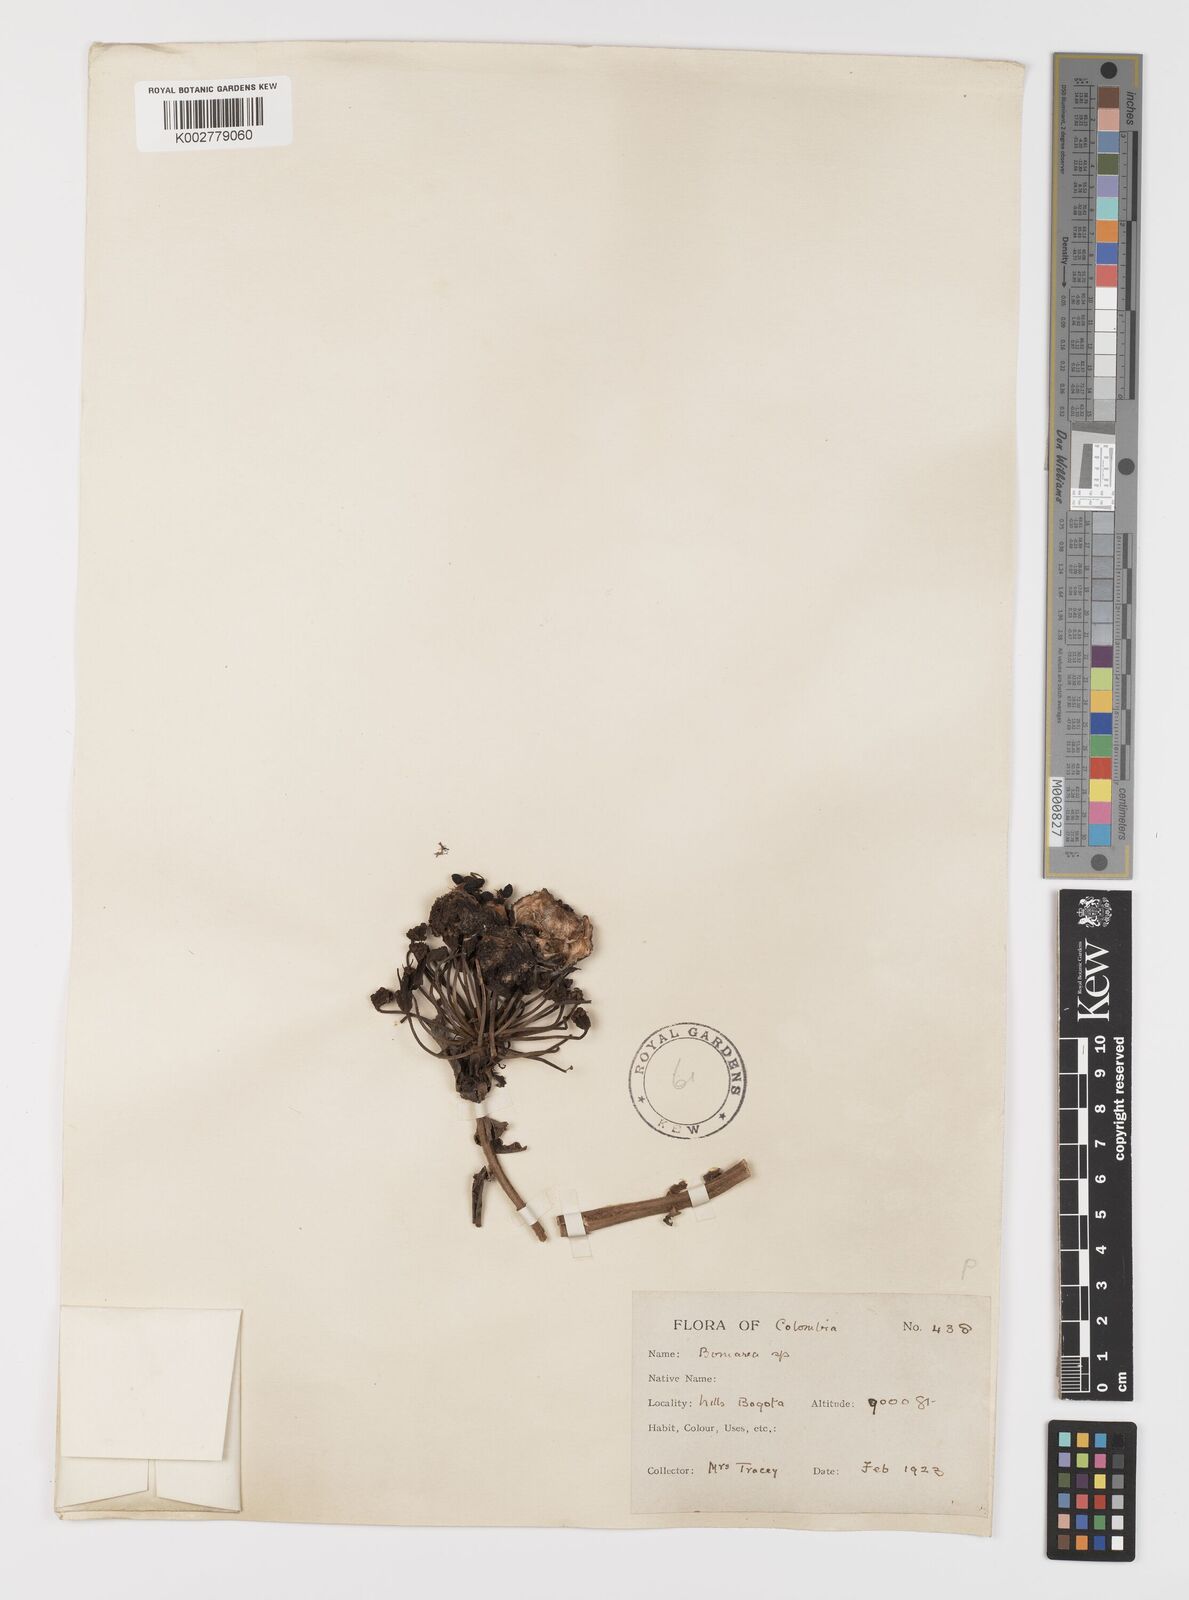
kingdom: Plantae
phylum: Tracheophyta
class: Liliopsida
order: Liliales
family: Alstroemeriaceae
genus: Bomarea
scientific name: Bomarea
